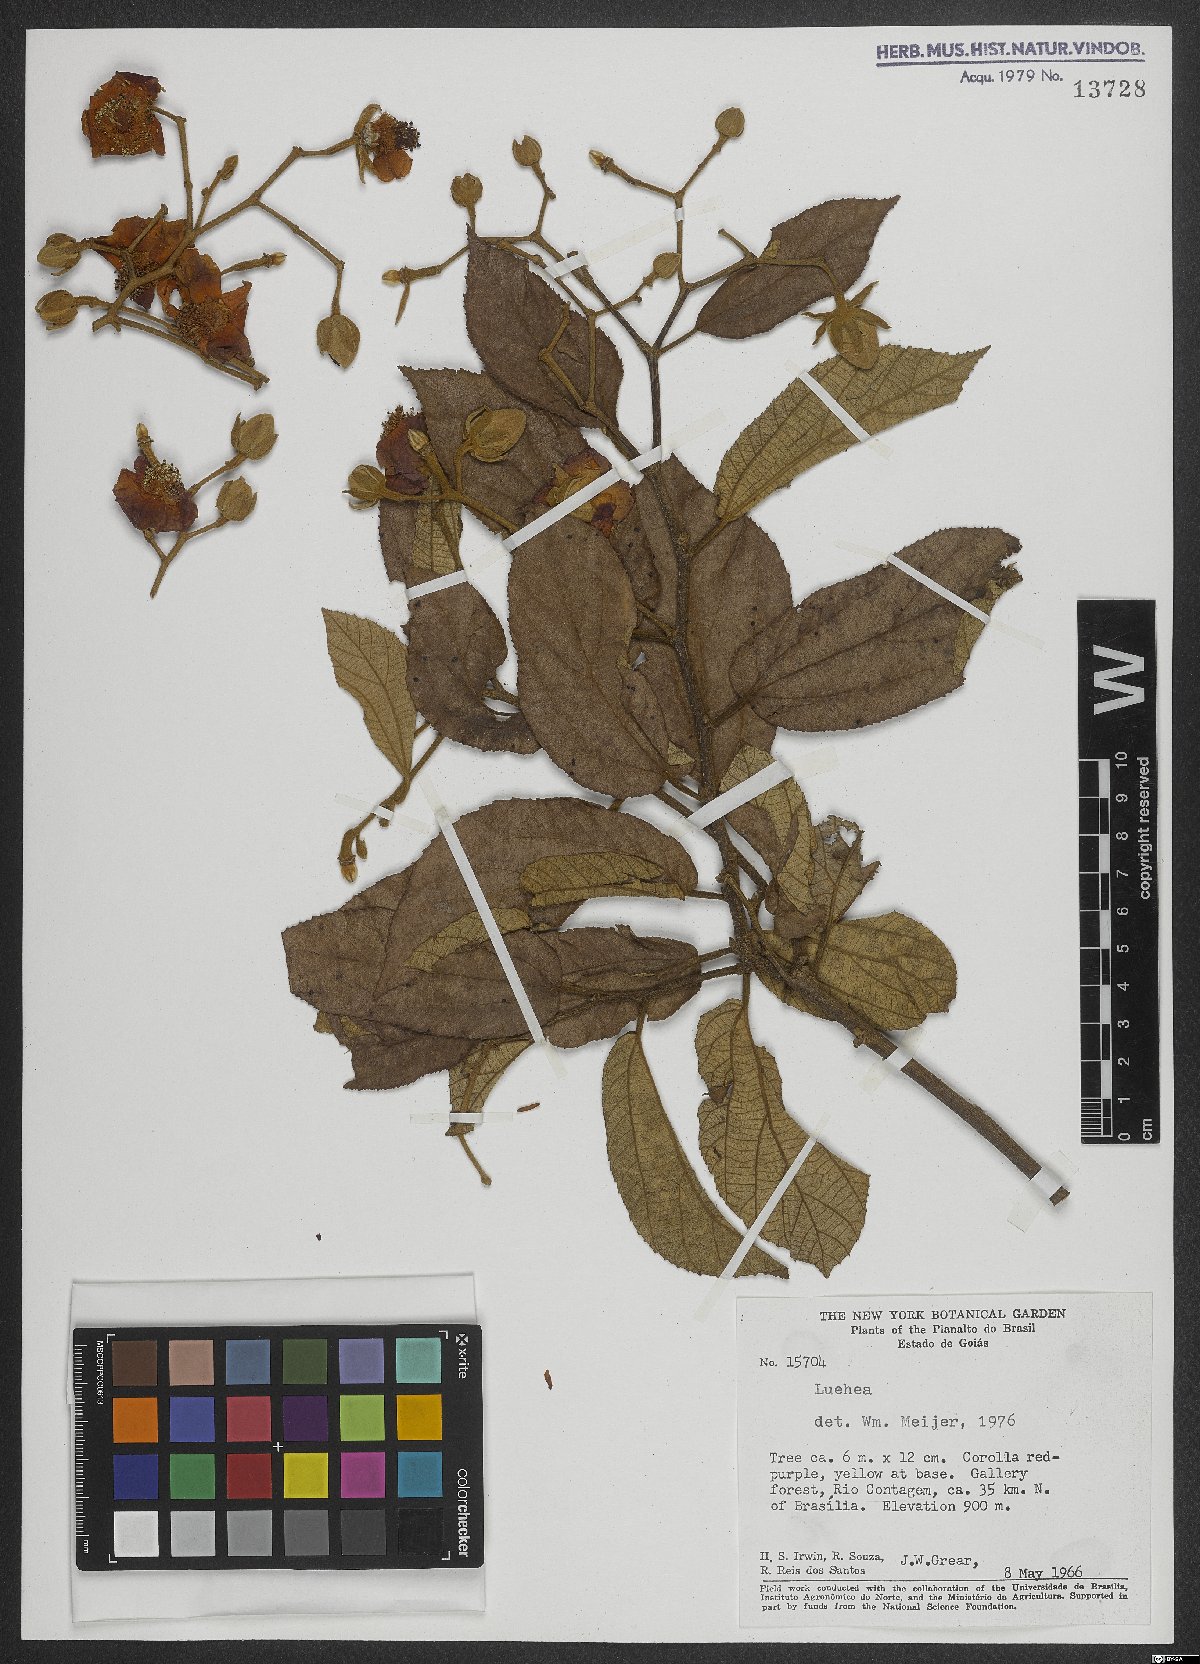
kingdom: Plantae
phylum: Tracheophyta
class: Magnoliopsida
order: Malvales
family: Malvaceae
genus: Luehea
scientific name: Luehea
